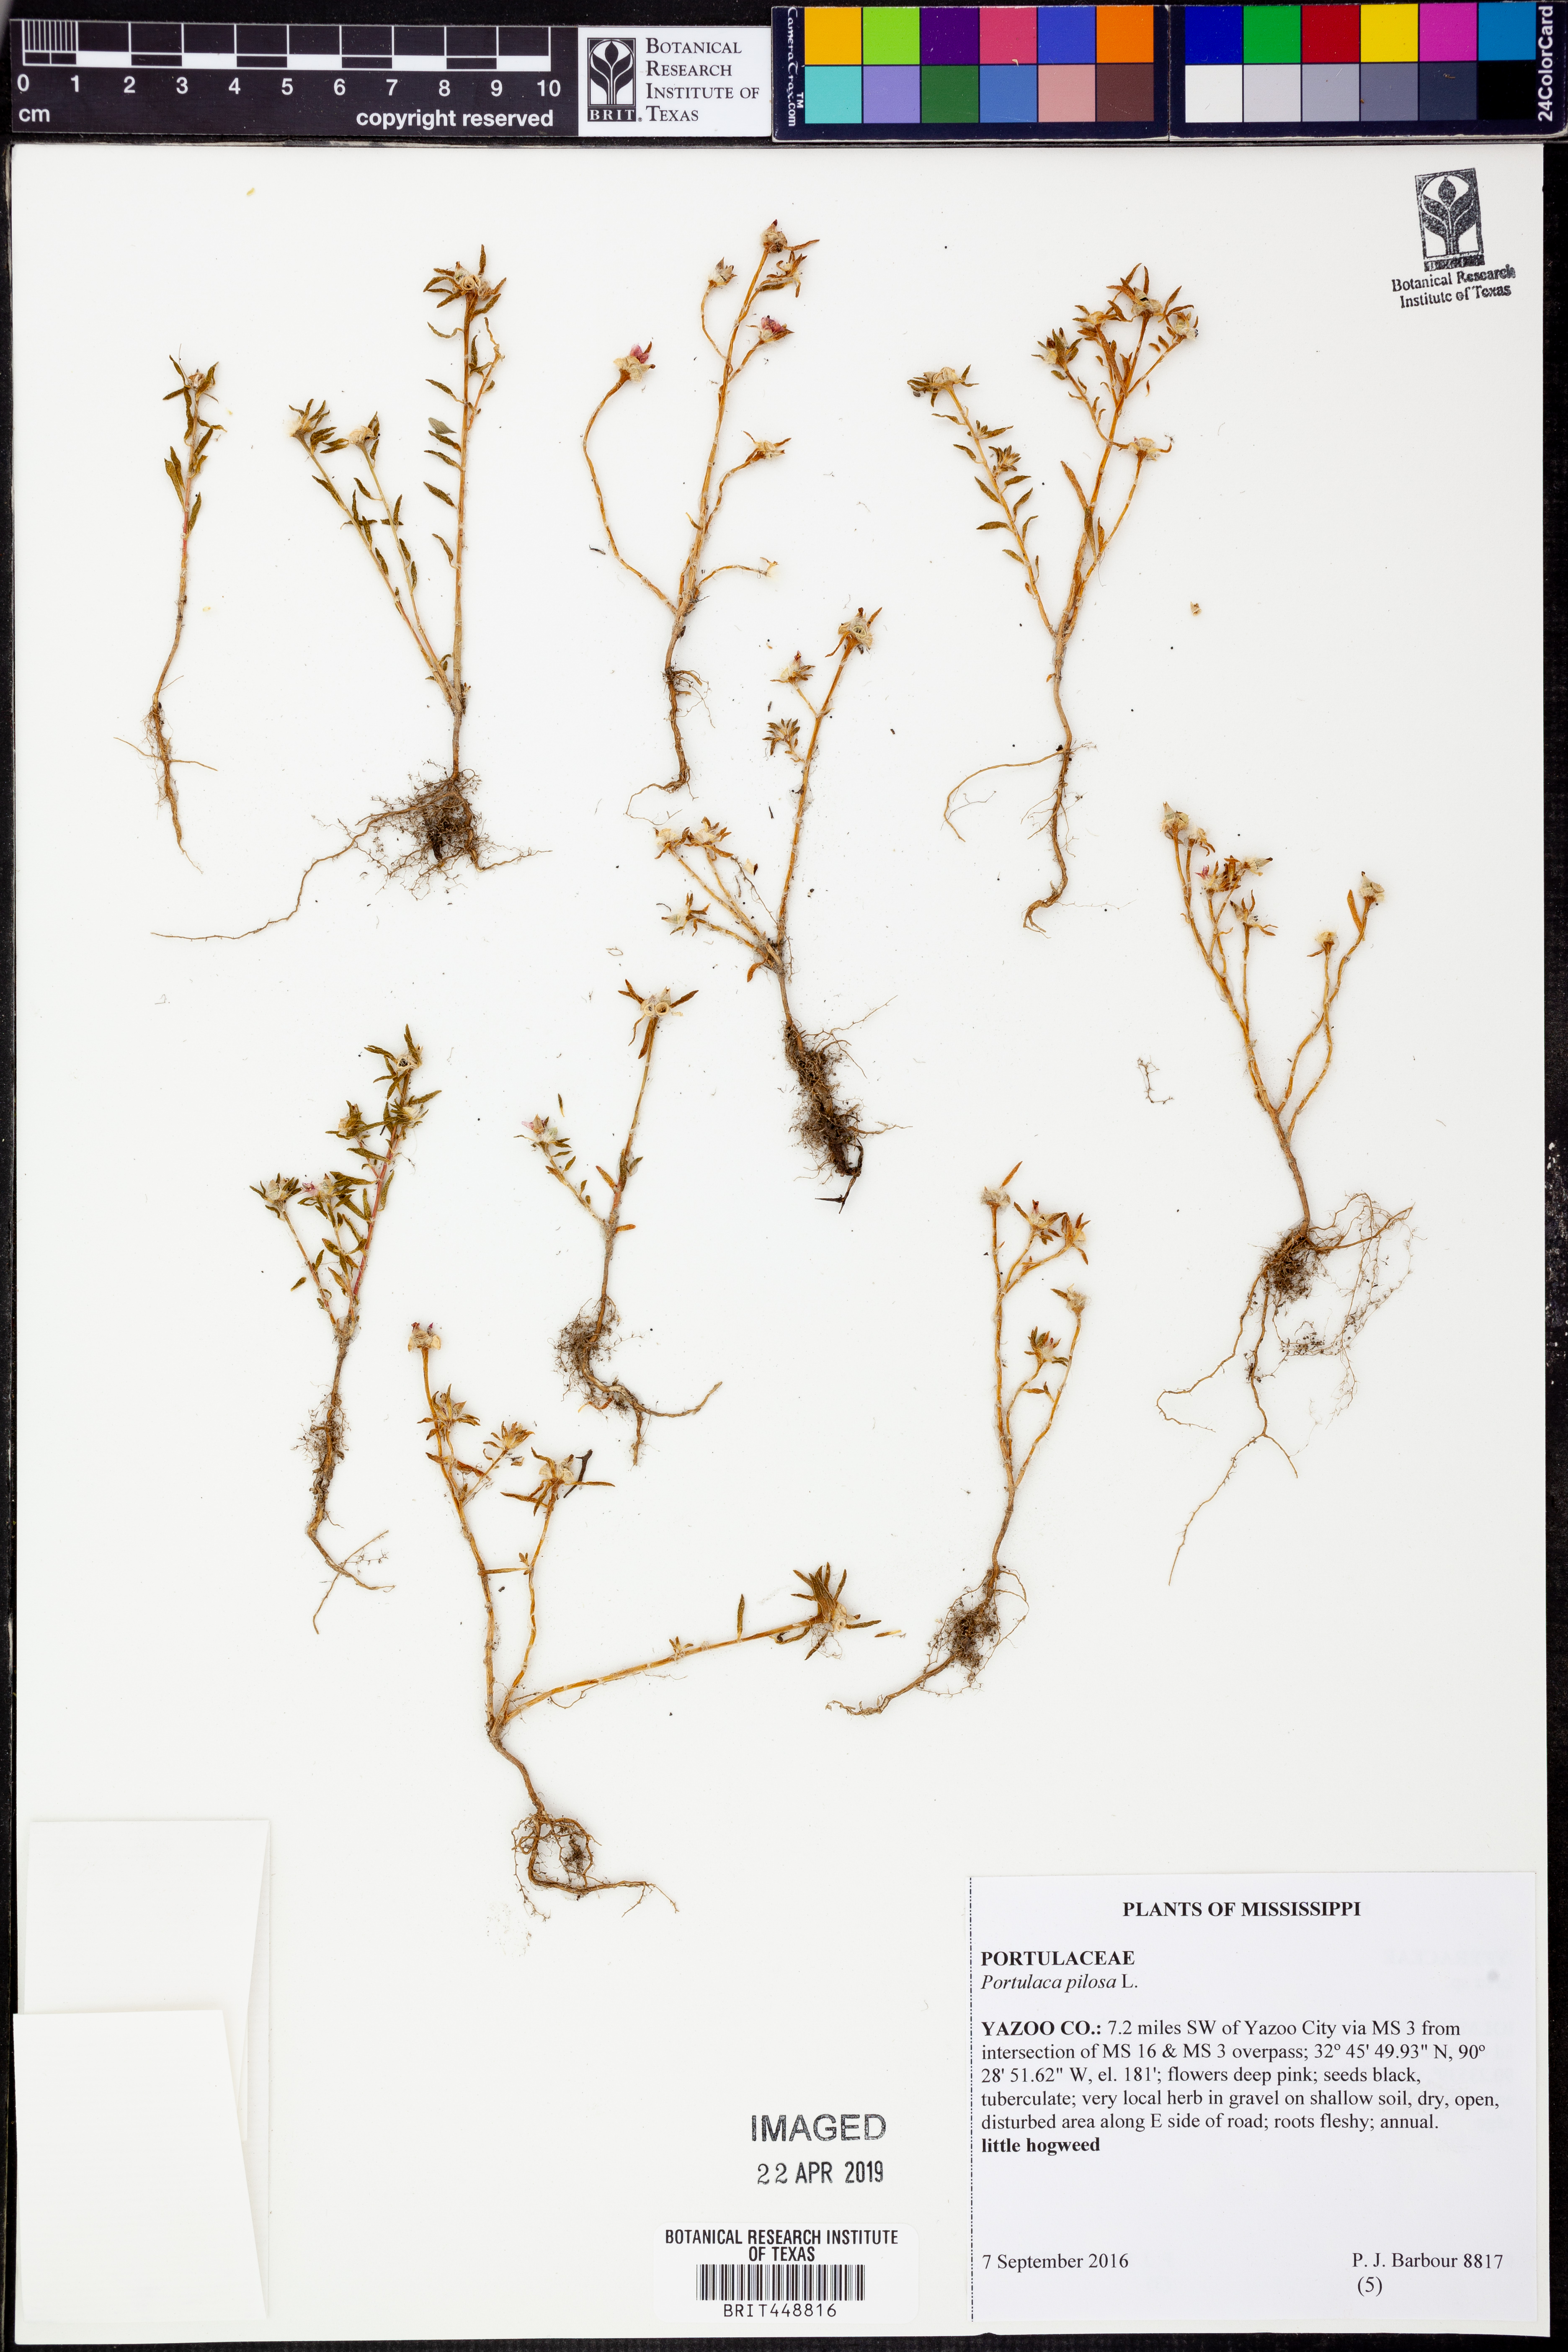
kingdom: Plantae
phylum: Tracheophyta
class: Magnoliopsida
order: Caryophyllales
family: Portulacaceae
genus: Portulaca
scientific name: Portulaca pilosa
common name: Kiss me quick
